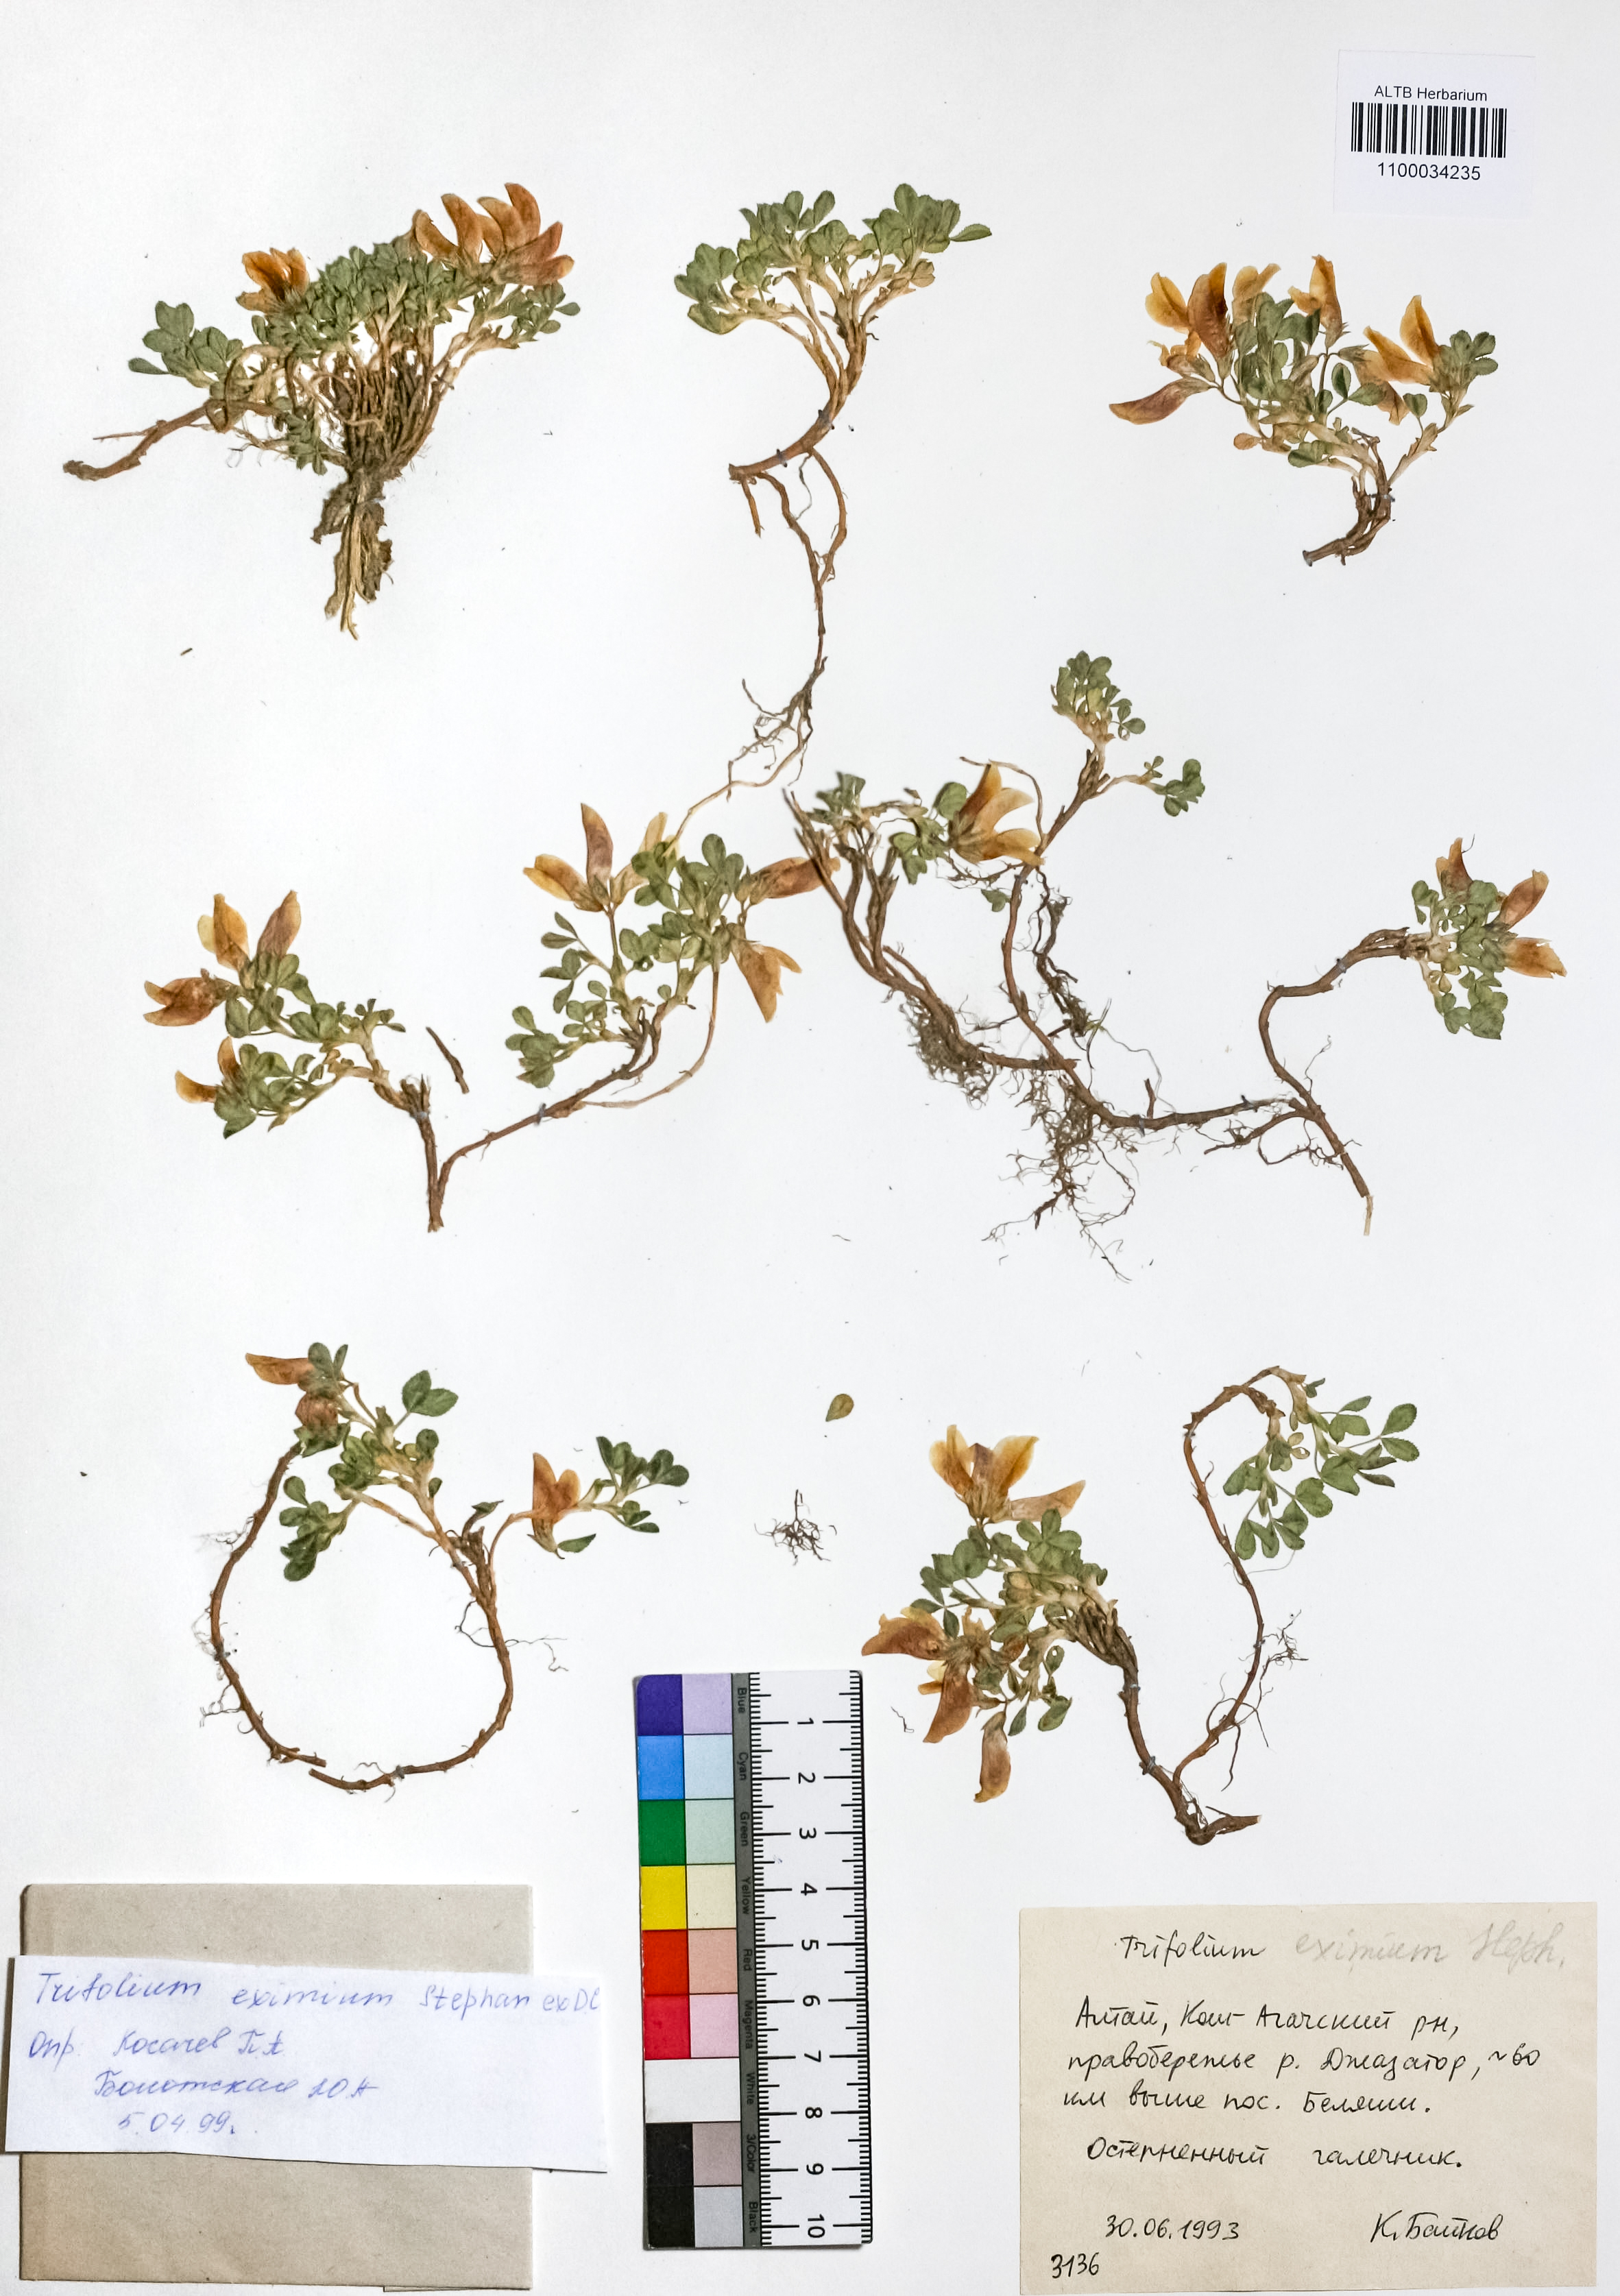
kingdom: Plantae
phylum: Tracheophyta
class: Magnoliopsida
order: Fabales
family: Fabaceae
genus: Trifolium
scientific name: Trifolium eximium
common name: Excellent clover
